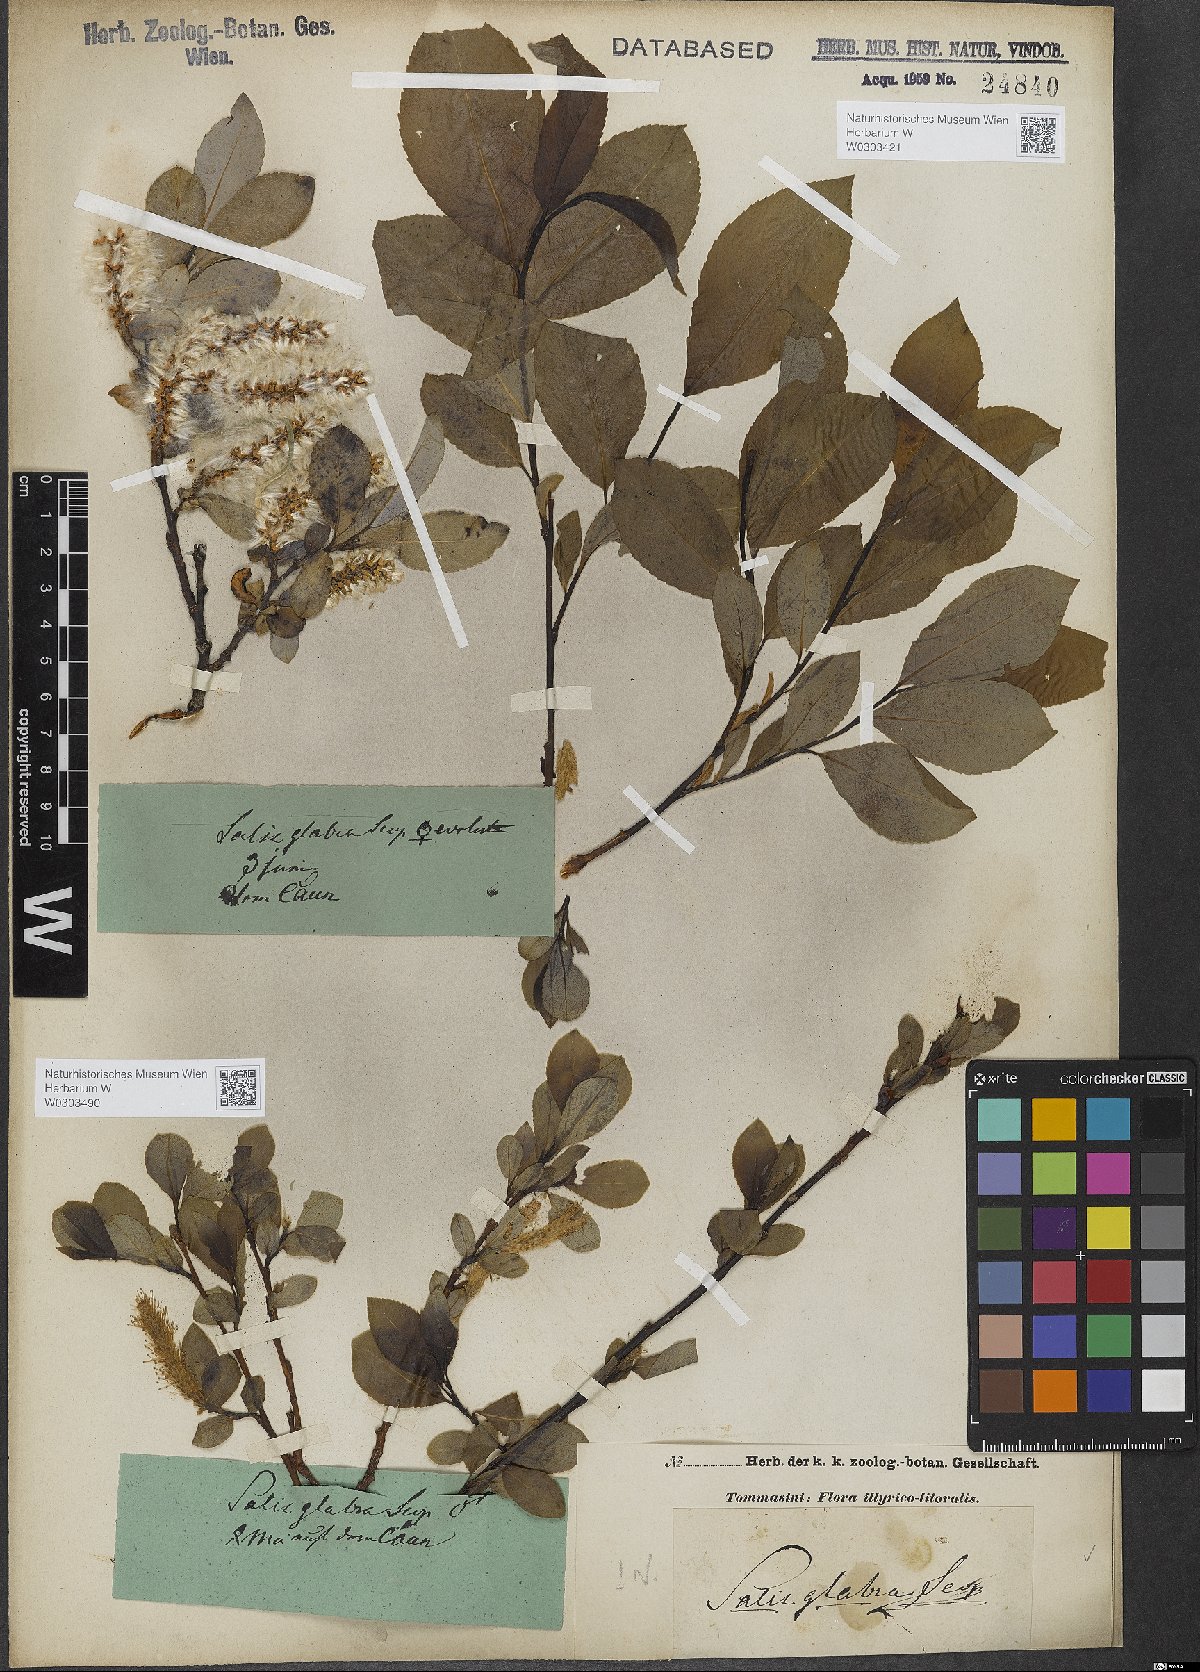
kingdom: Plantae
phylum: Tracheophyta
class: Magnoliopsida
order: Malpighiales
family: Salicaceae
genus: Salix
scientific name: Salix glabra
